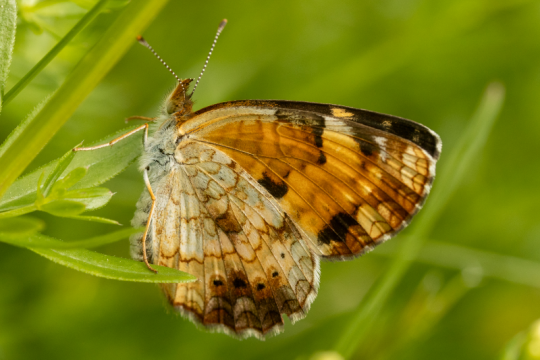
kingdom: Animalia
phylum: Arthropoda
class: Insecta
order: Lepidoptera
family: Nymphalidae
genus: Phyciodes
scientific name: Phyciodes tharos
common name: Northern Crescent
